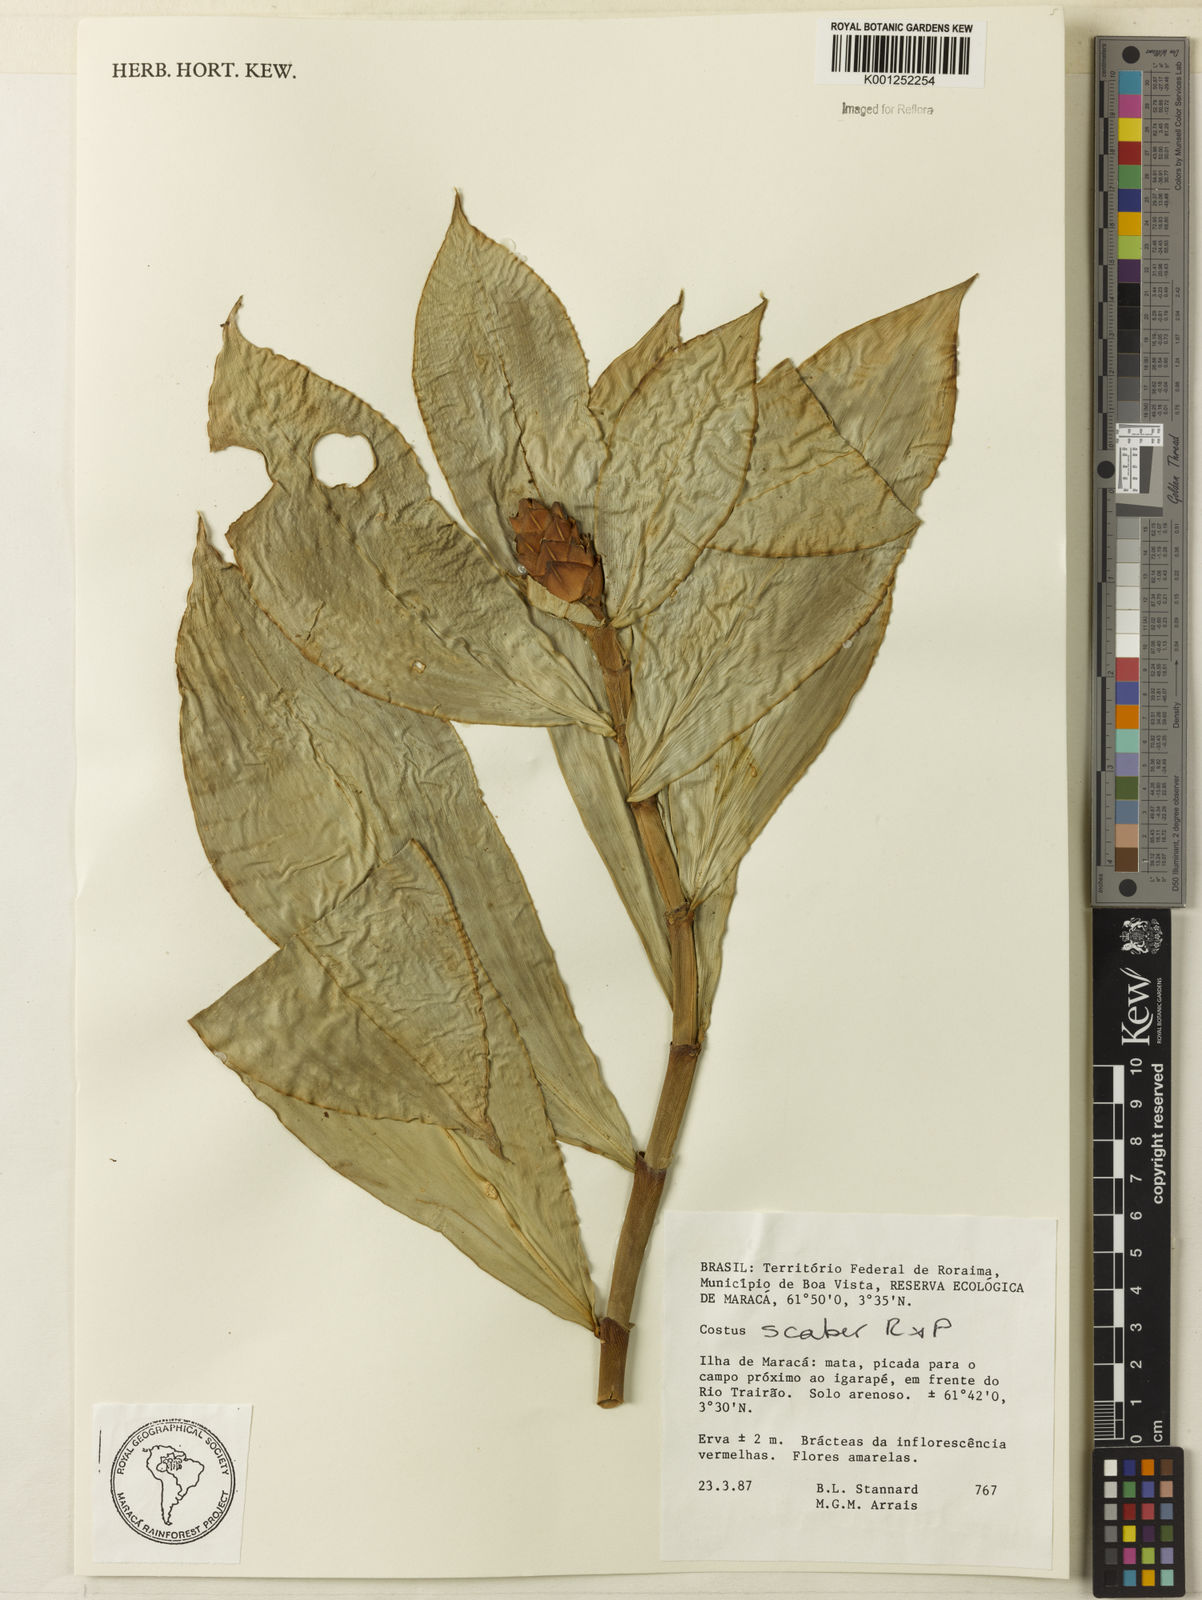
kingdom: Plantae
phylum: Tracheophyta
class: Liliopsida
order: Zingiberales
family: Costaceae
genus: Costus
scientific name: Costus scaber
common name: Spiral head ginger
